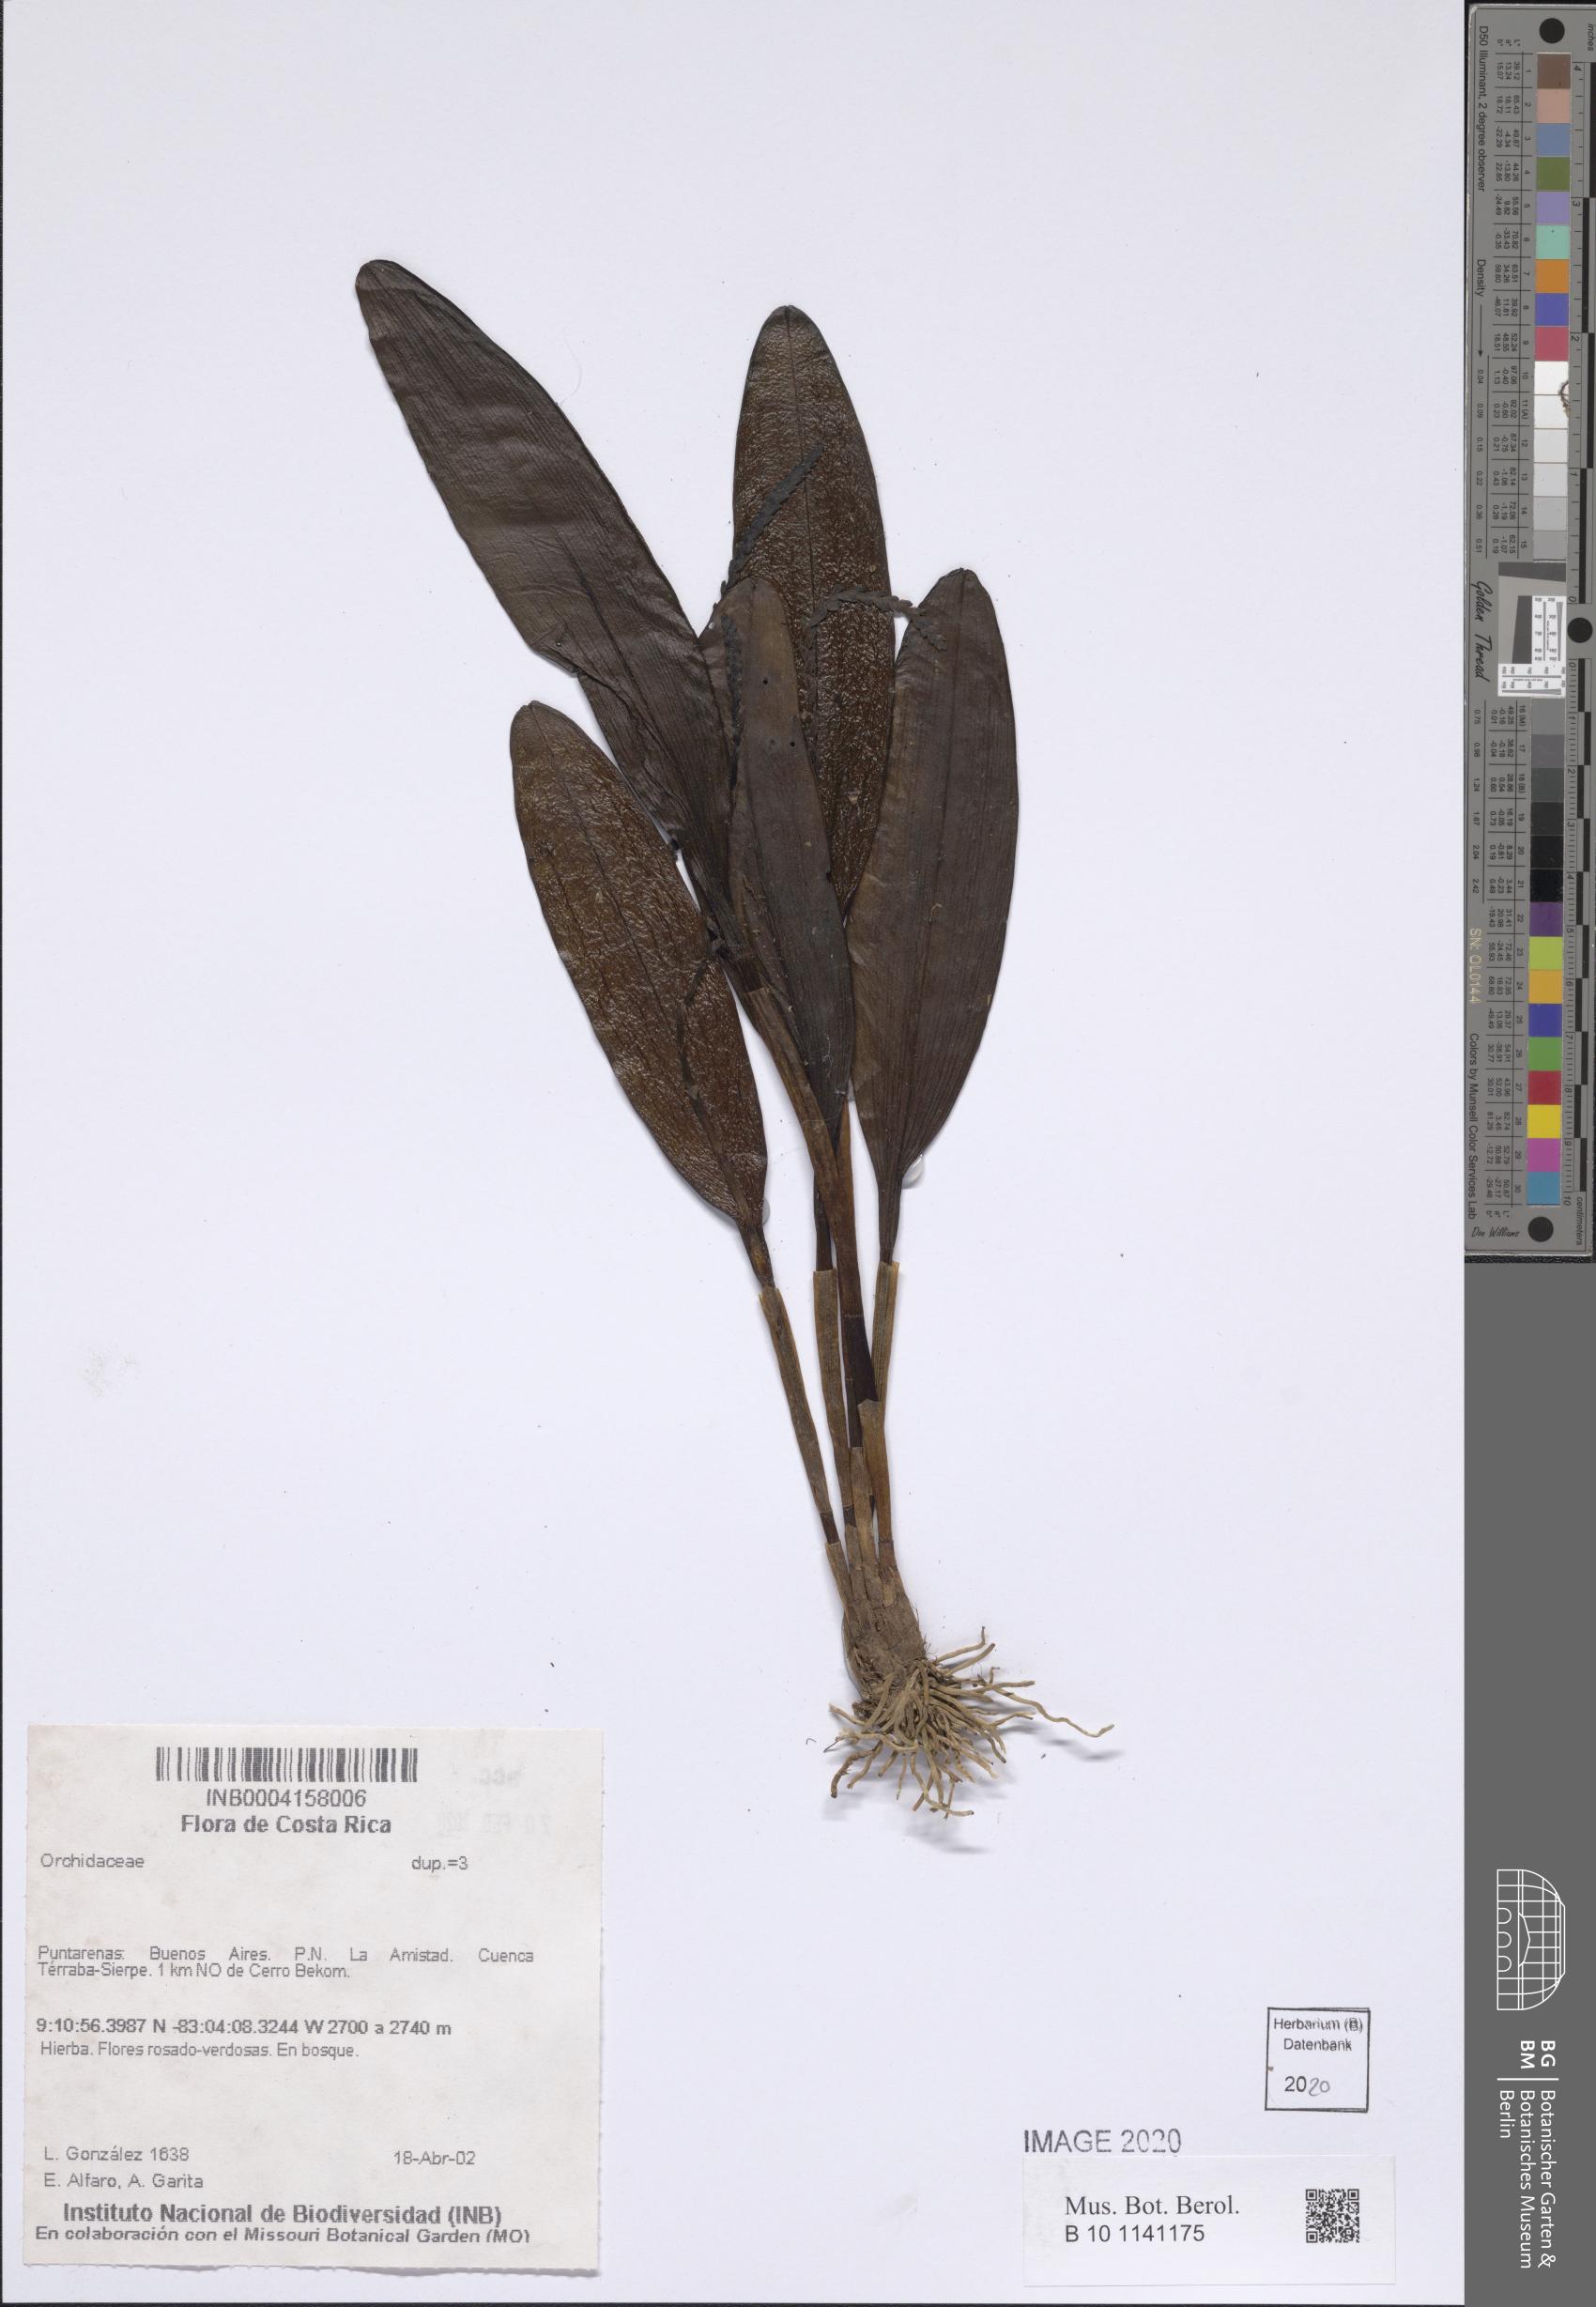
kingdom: Plantae
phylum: Tracheophyta
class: Liliopsida
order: Asparagales
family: Orchidaceae
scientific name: Orchidaceae
